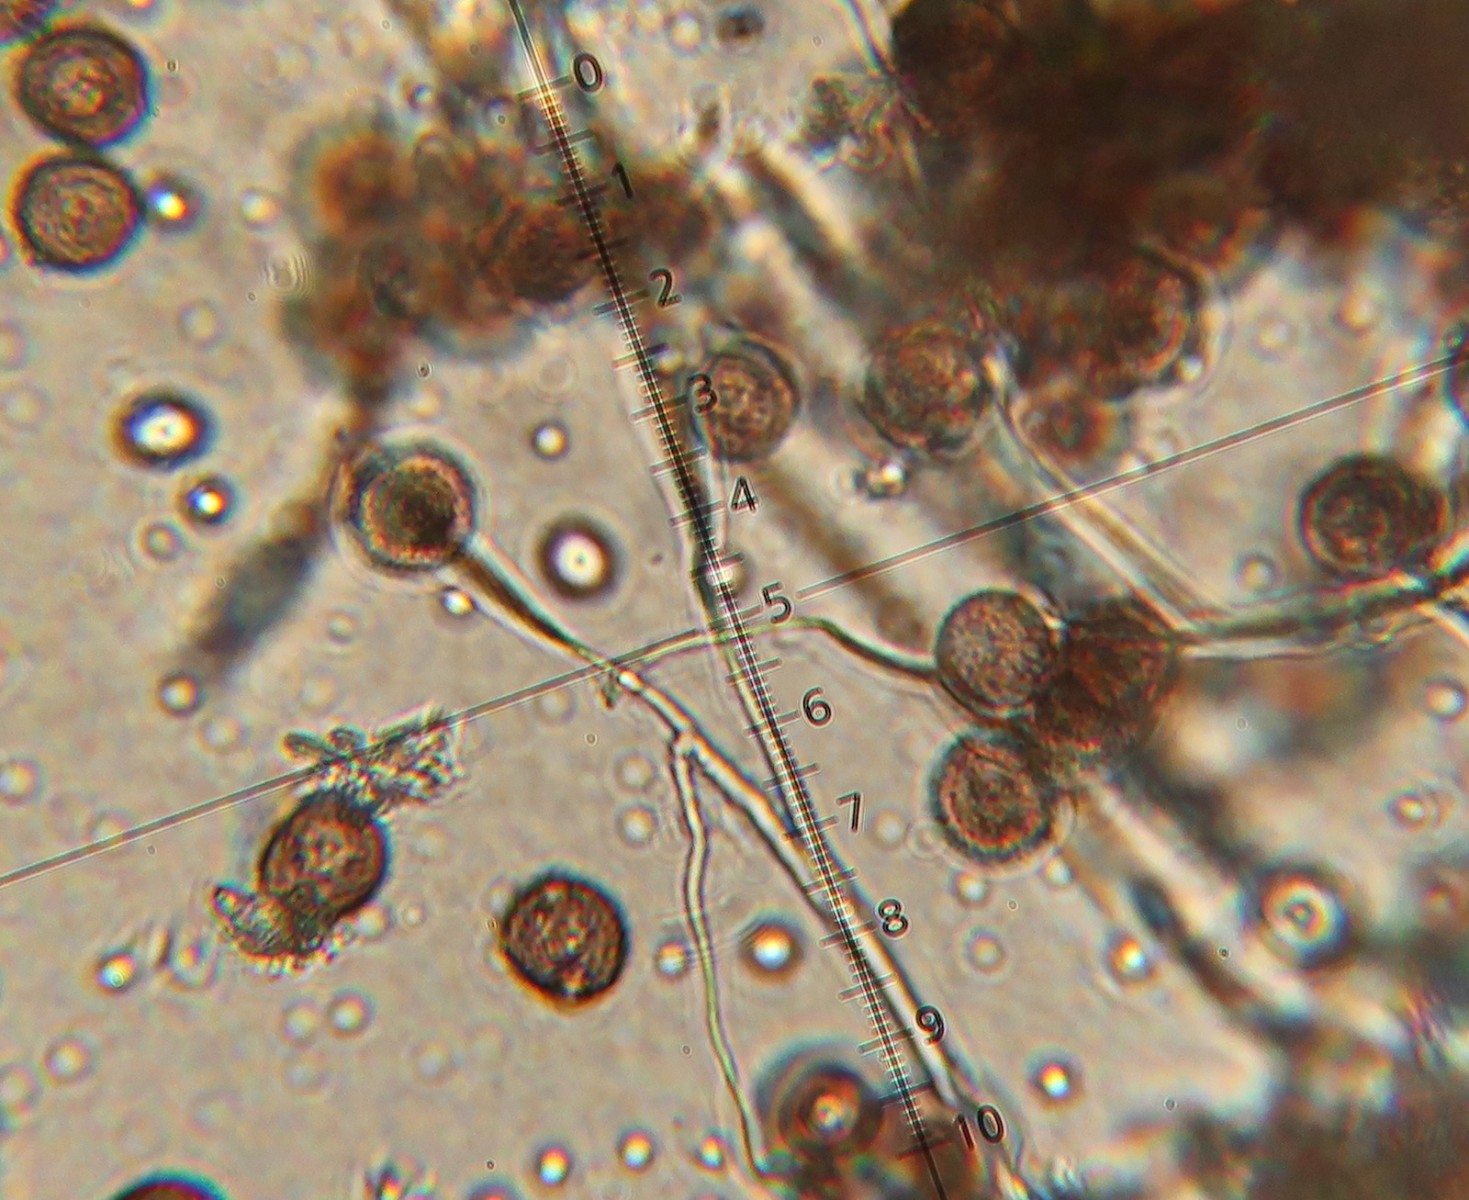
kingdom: Protozoa
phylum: Mycetozoa
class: Myxomycetes
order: Physarales
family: Didymiaceae
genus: Didymium
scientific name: Didymium squamulosum
